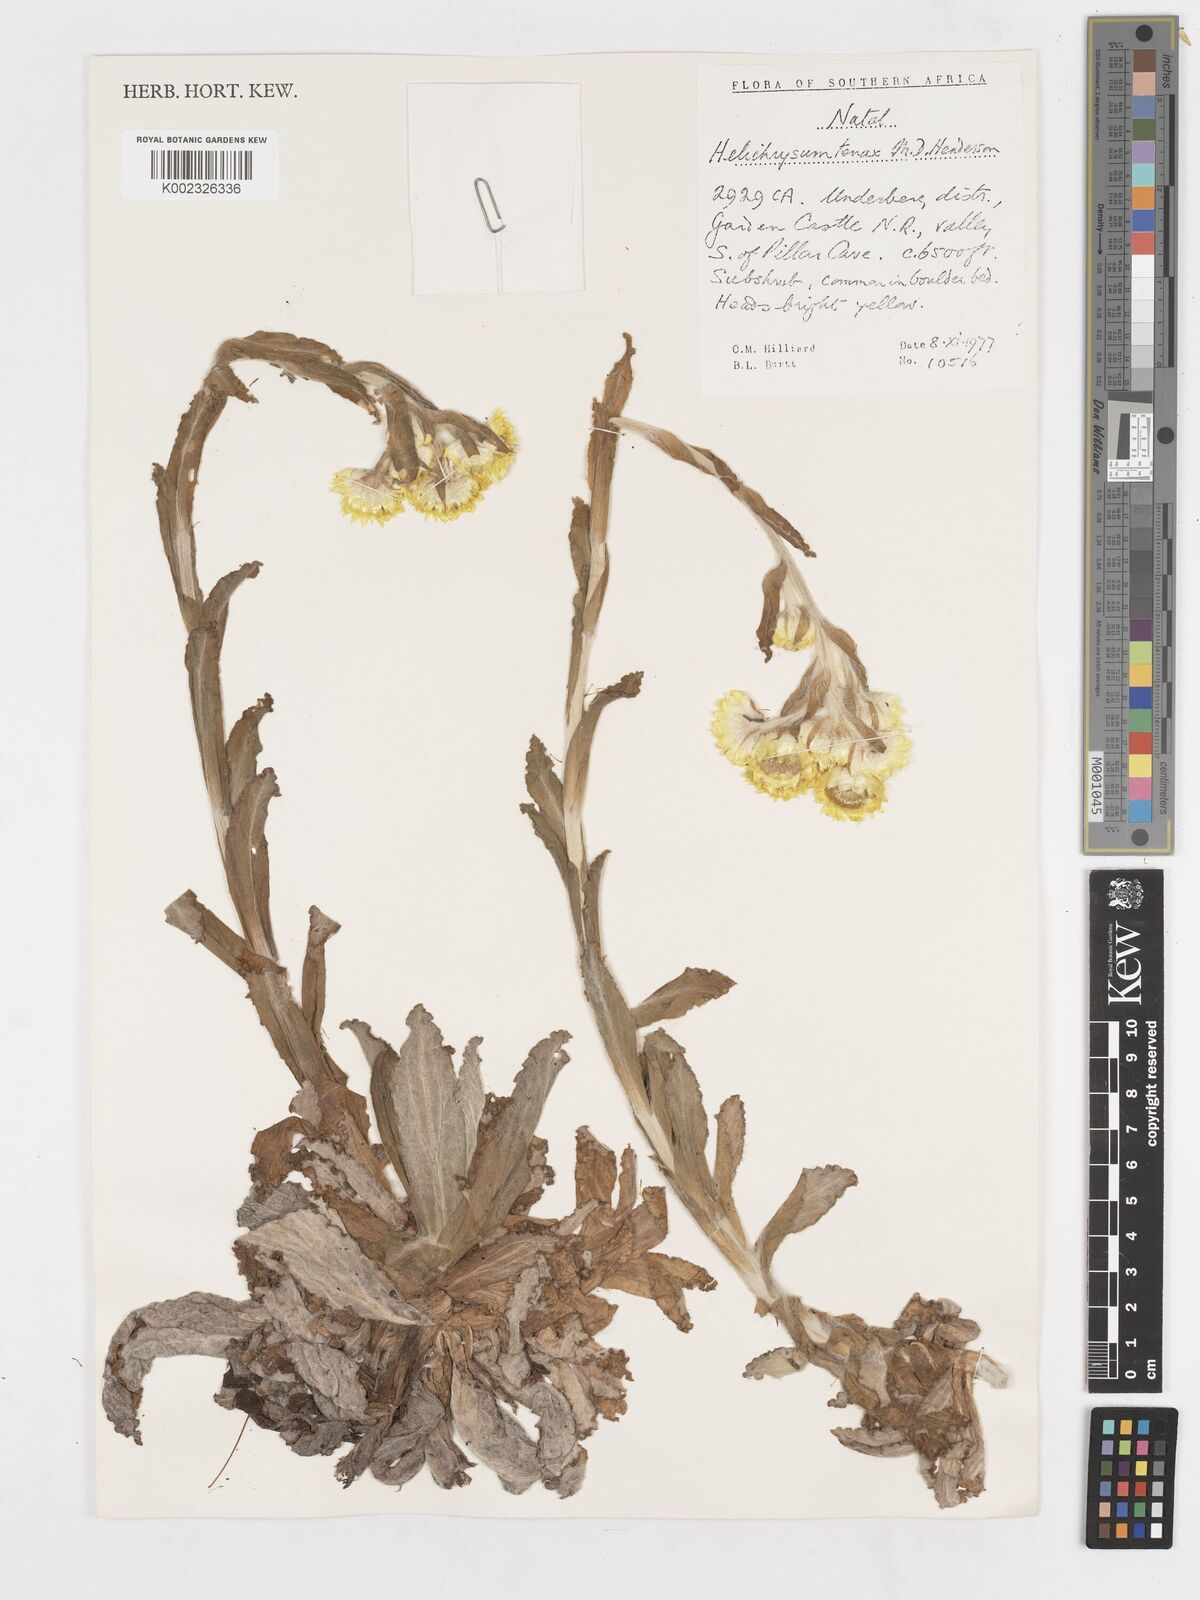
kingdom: Plantae
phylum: Tracheophyta
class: Magnoliopsida
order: Asterales
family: Asteraceae
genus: Helichrysum
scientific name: Helichrysum tenax
